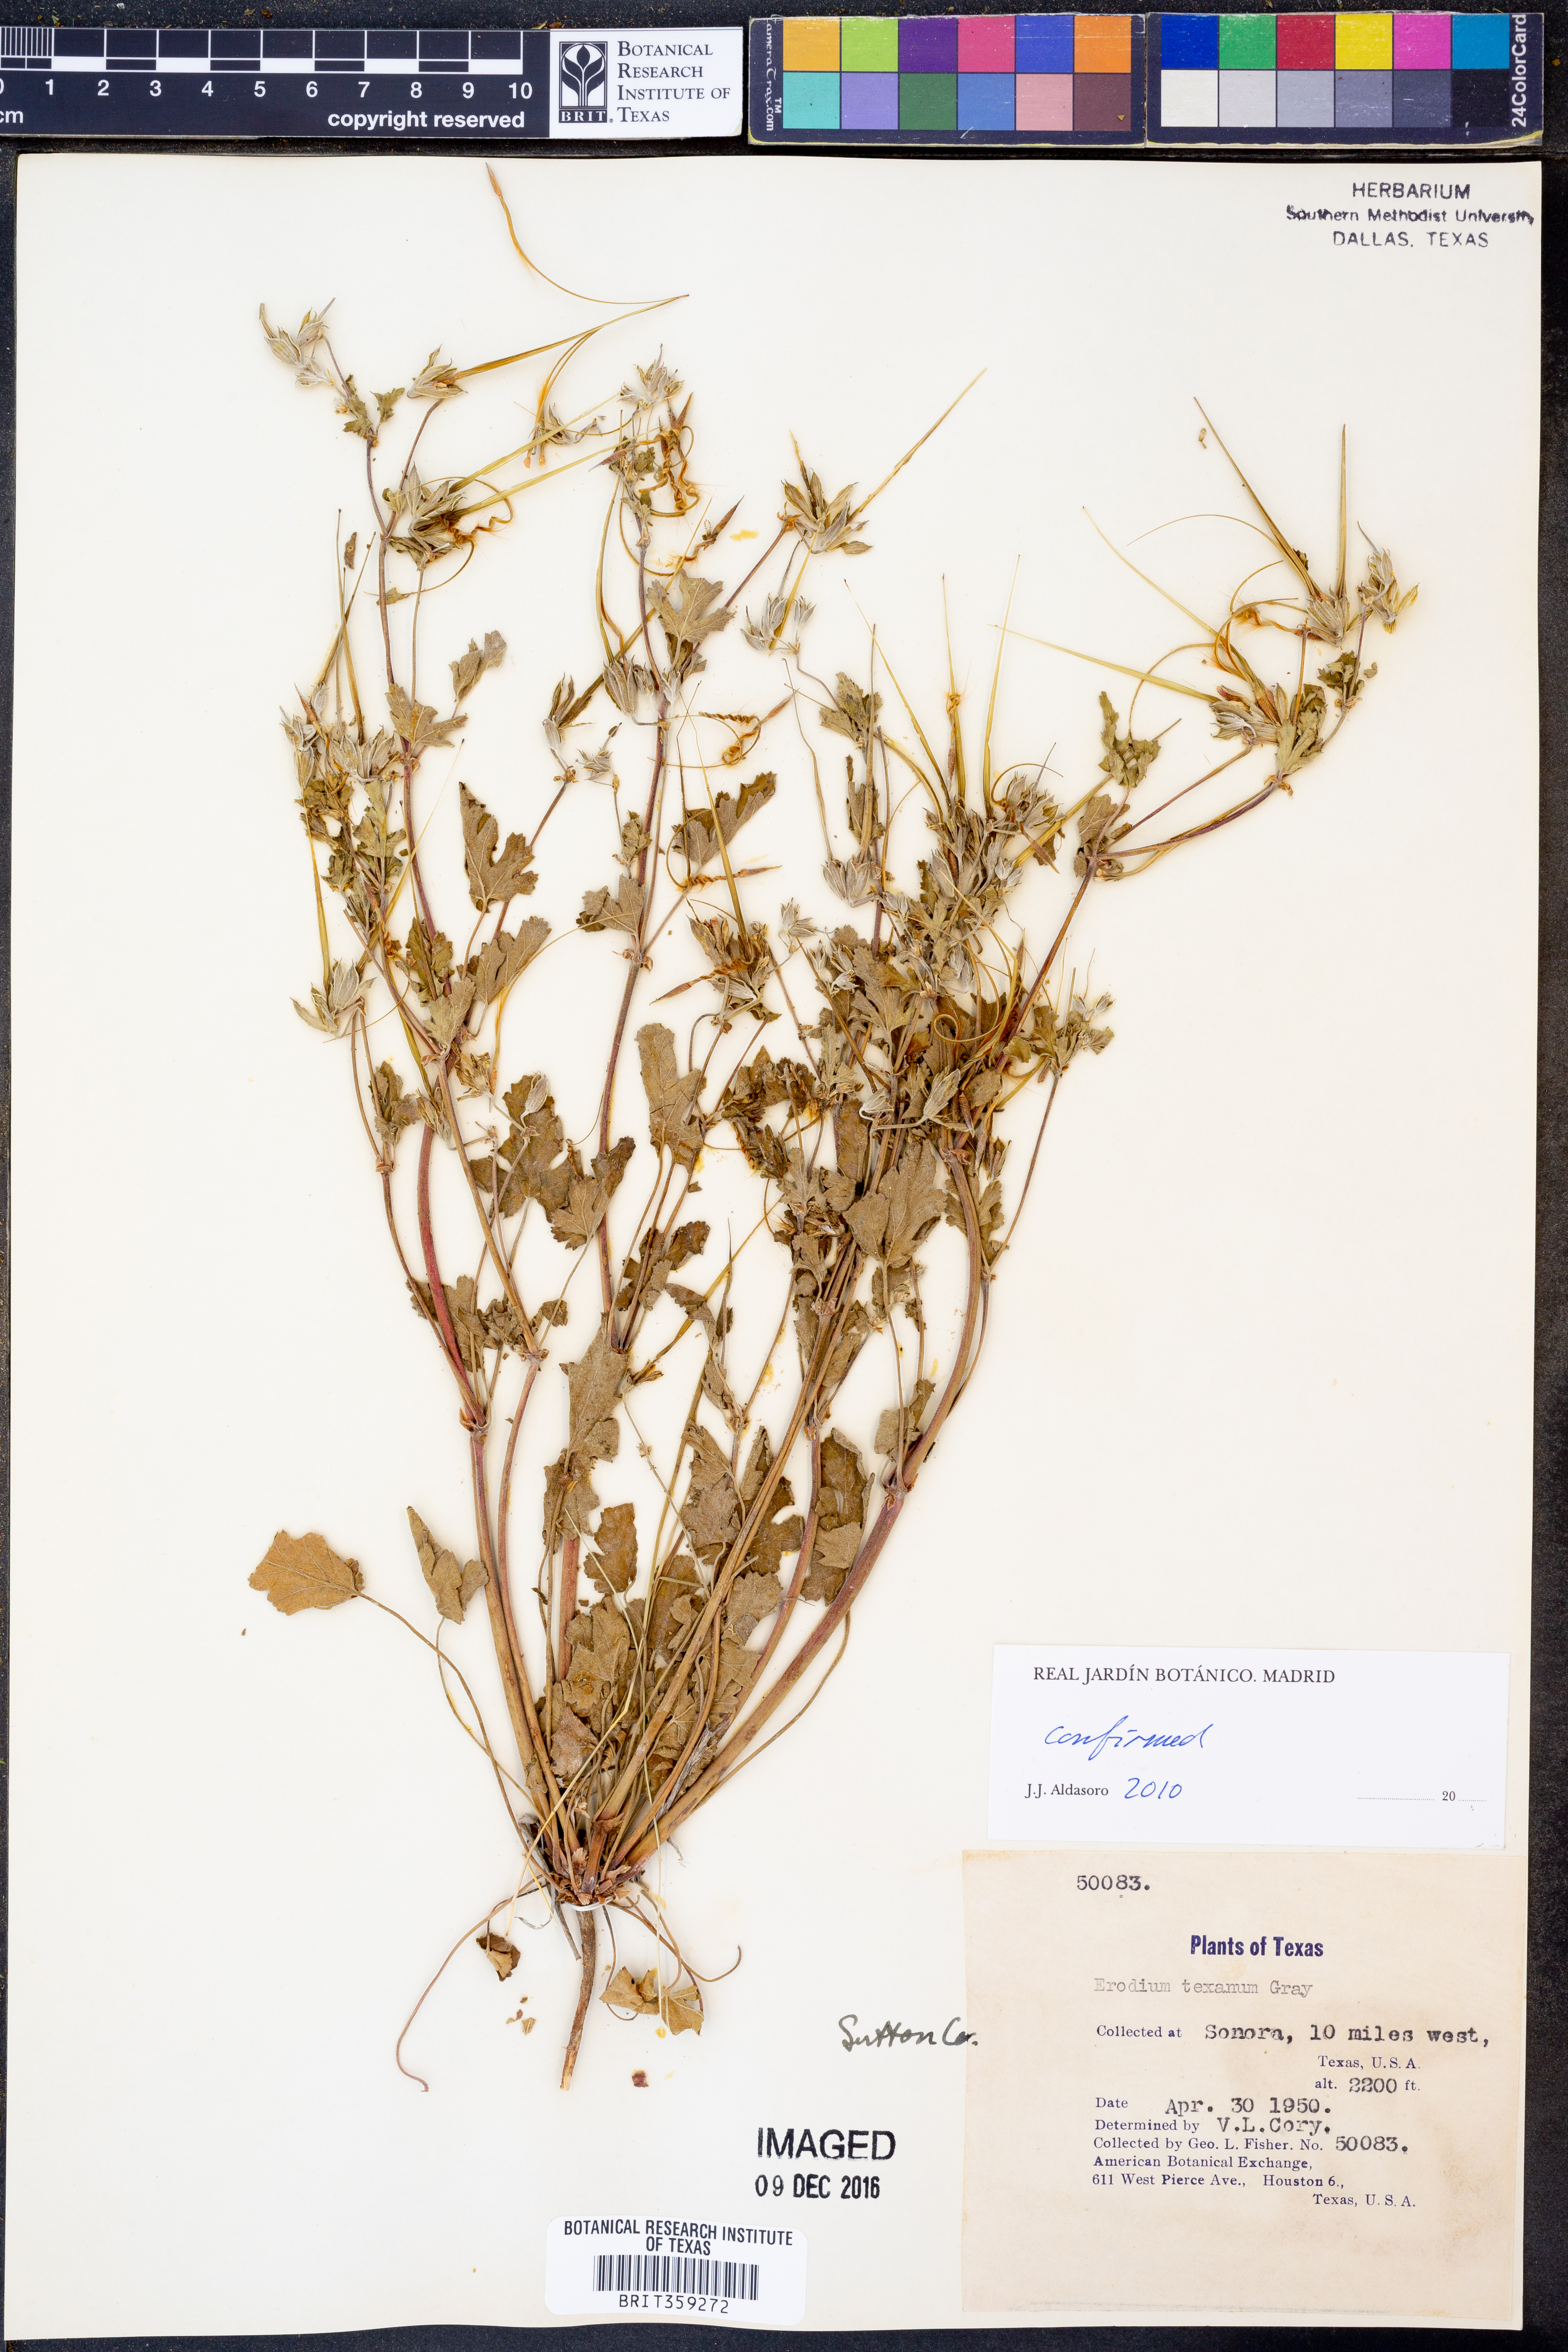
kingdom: Plantae
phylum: Tracheophyta
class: Magnoliopsida
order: Geraniales
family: Geraniaceae
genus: Erodium
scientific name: Erodium texanum
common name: Texas stork's-bill
